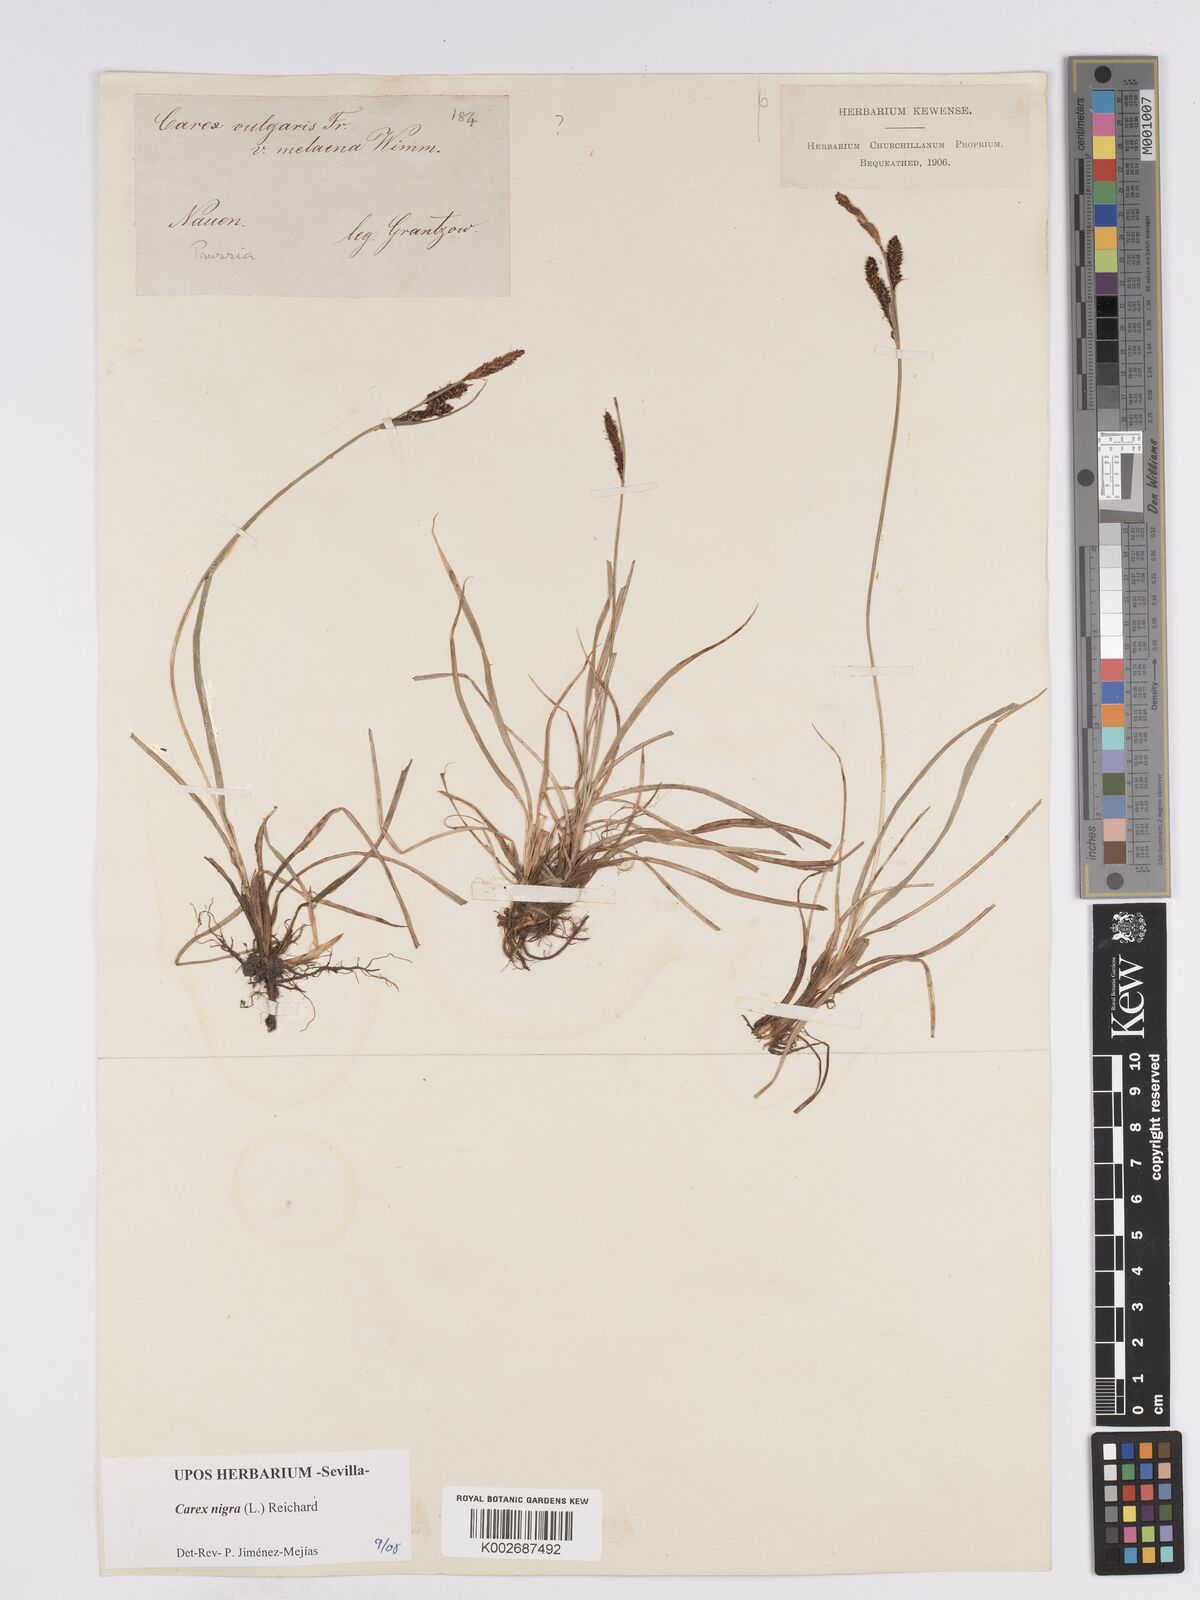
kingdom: Plantae
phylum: Tracheophyta
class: Liliopsida
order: Poales
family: Cyperaceae
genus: Carex
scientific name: Carex nigra
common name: Common sedge
